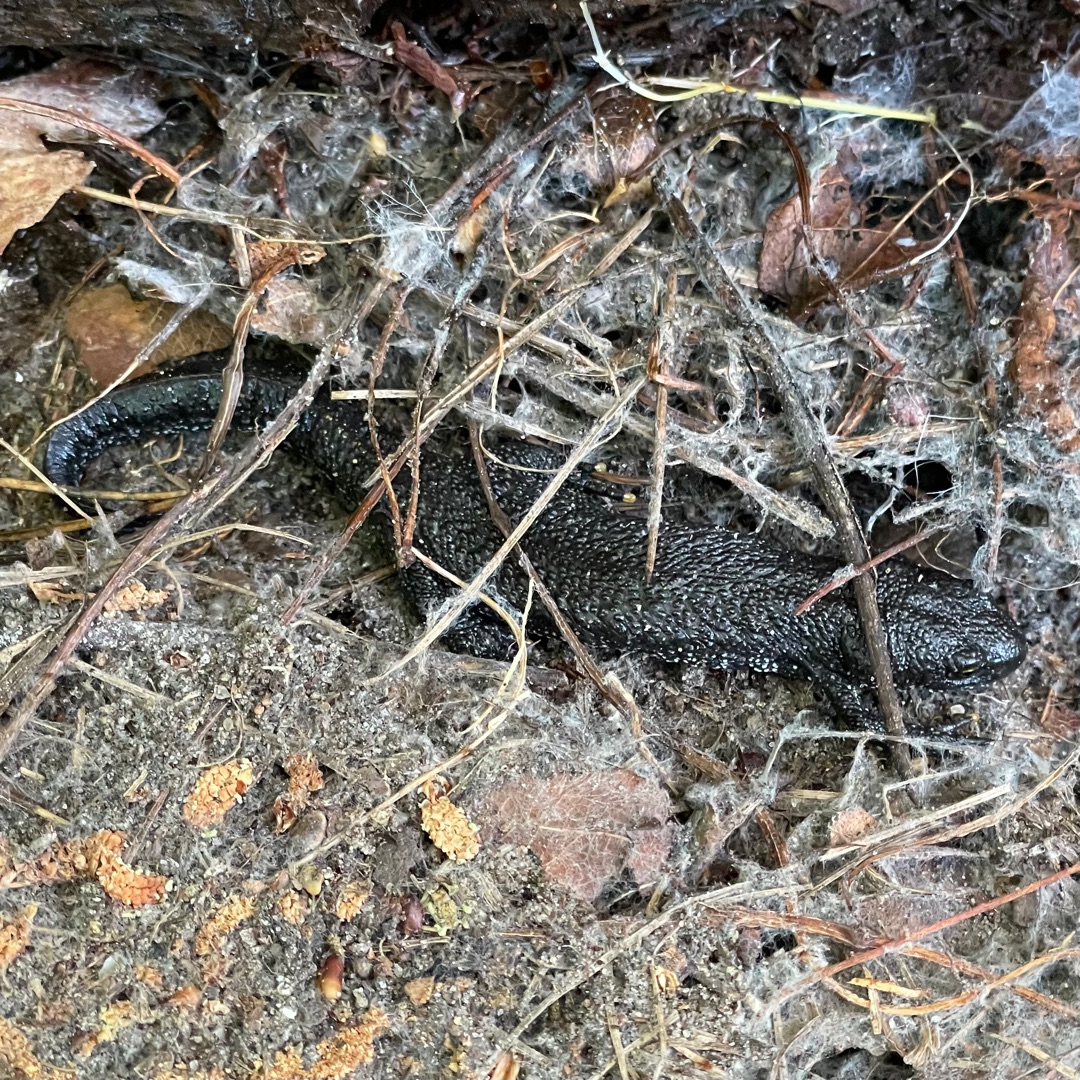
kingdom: Animalia
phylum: Chordata
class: Amphibia
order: Caudata
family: Salamandridae
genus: Triturus
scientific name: Triturus cristatus
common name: Stor vandsalamander
